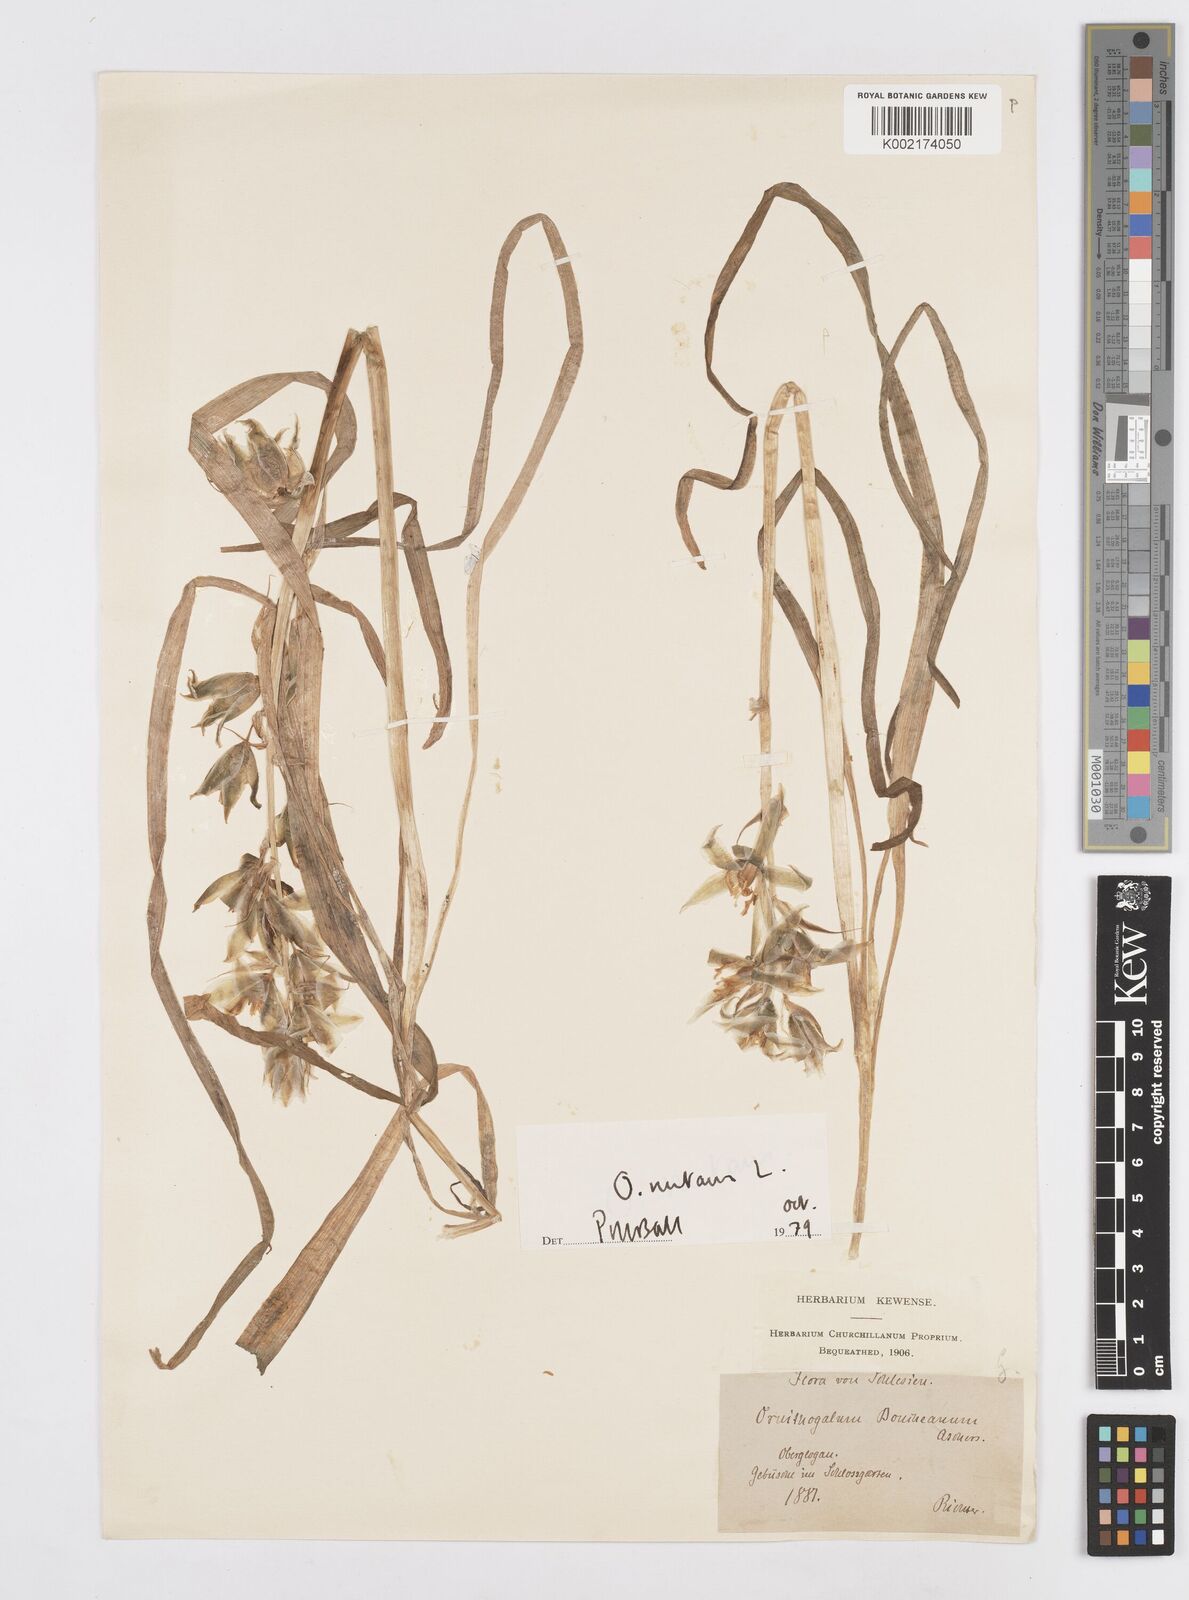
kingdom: Plantae
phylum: Tracheophyta
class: Liliopsida
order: Asparagales
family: Asparagaceae
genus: Ornithogalum
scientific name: Ornithogalum boucheanum
